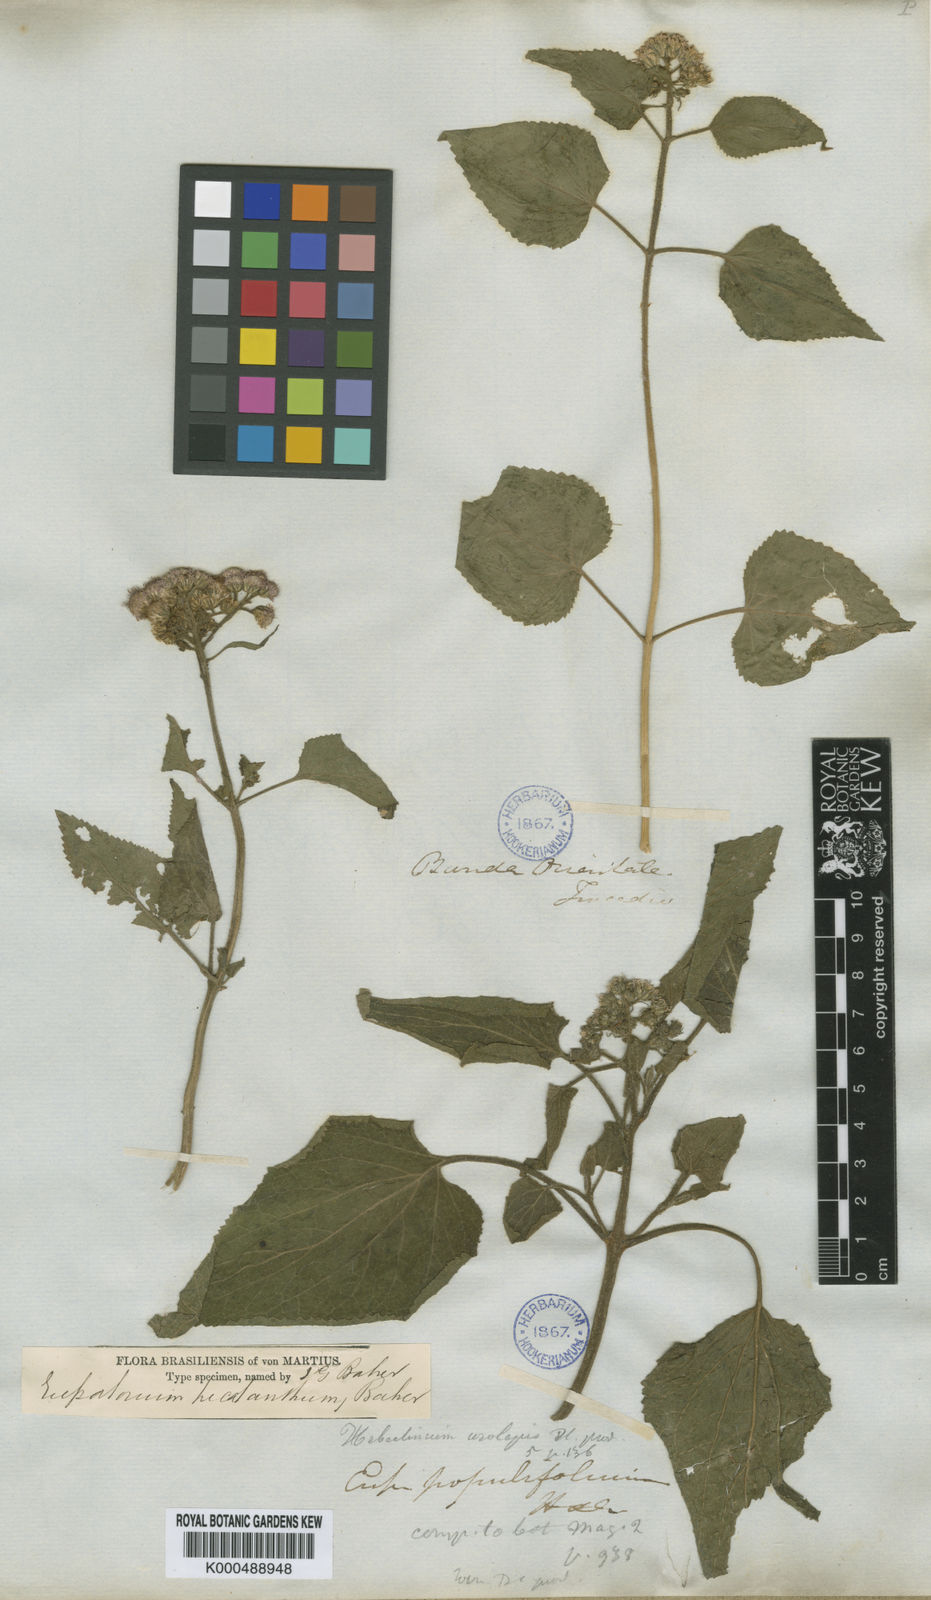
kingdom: Plantae
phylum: Tracheophyta
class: Magnoliopsida
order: Asterales
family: Asteraceae
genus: Urolepis
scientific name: Urolepis hecatantha
